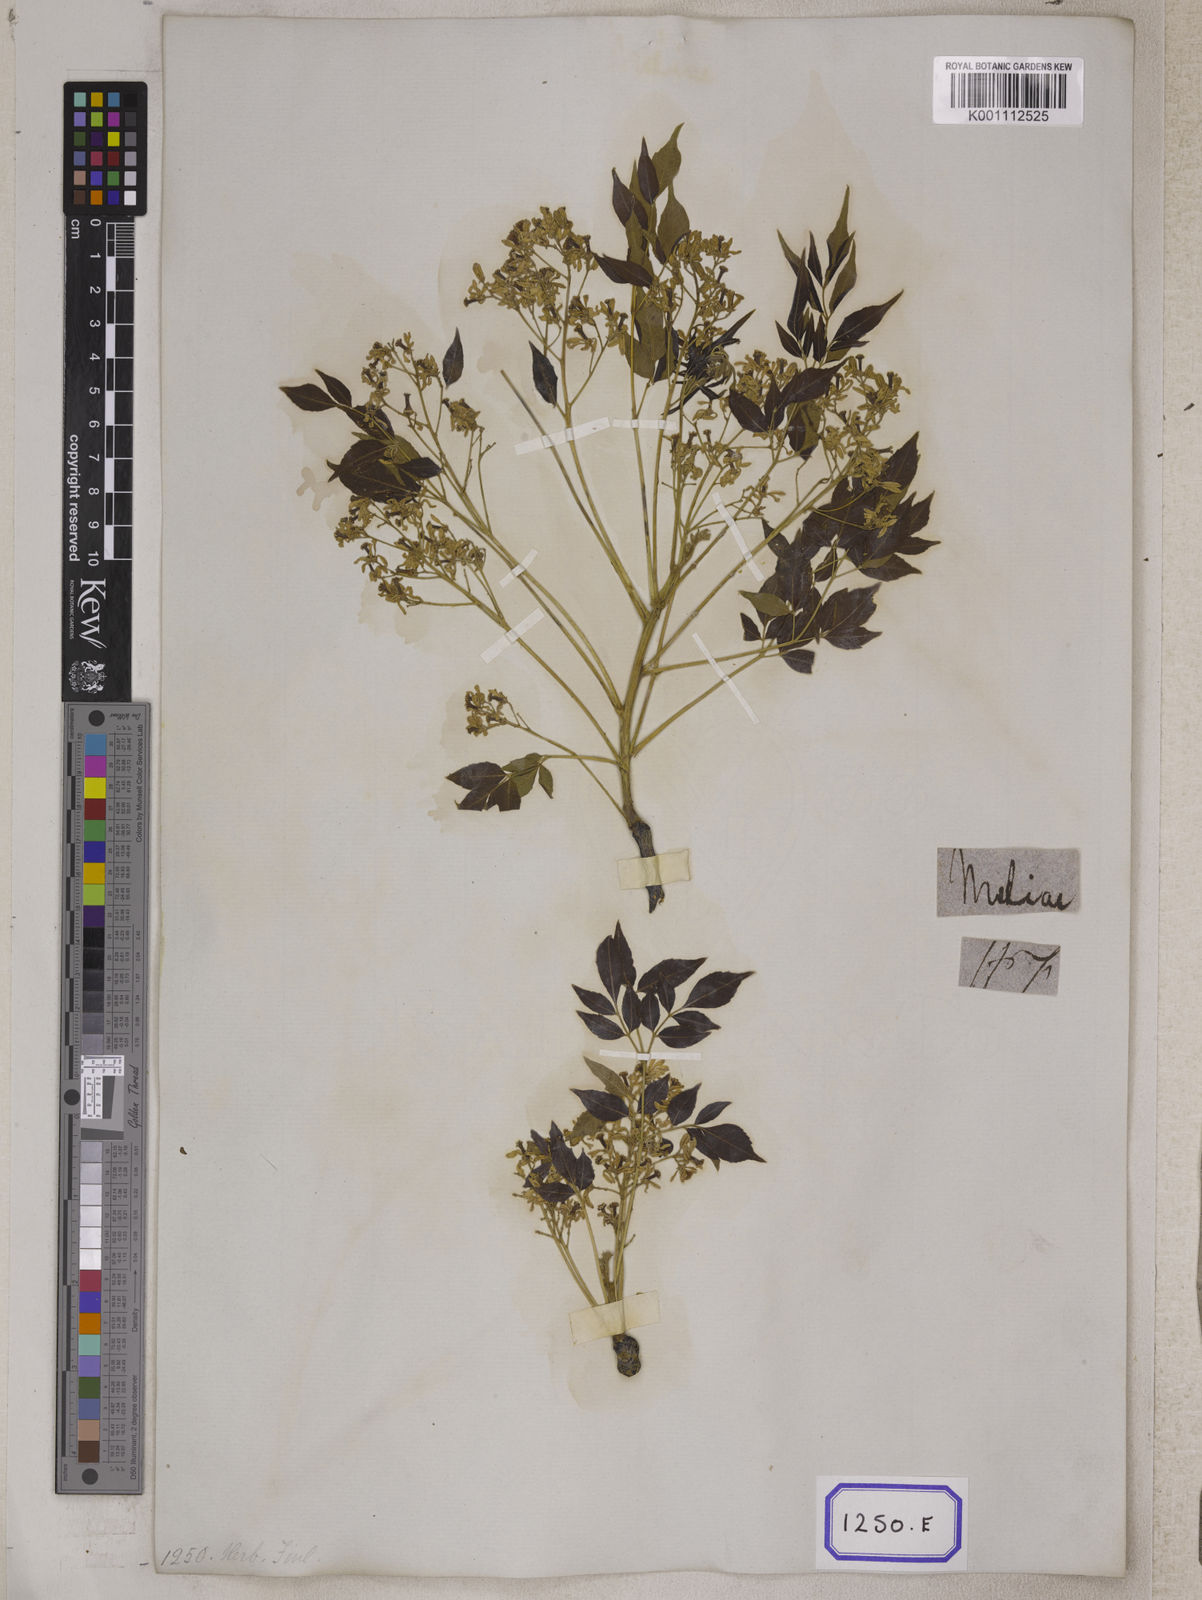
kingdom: Plantae
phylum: Tracheophyta
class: Magnoliopsida
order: Sapindales
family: Meliaceae
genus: Melia
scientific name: Melia azedarach
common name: Chinaberrytree
